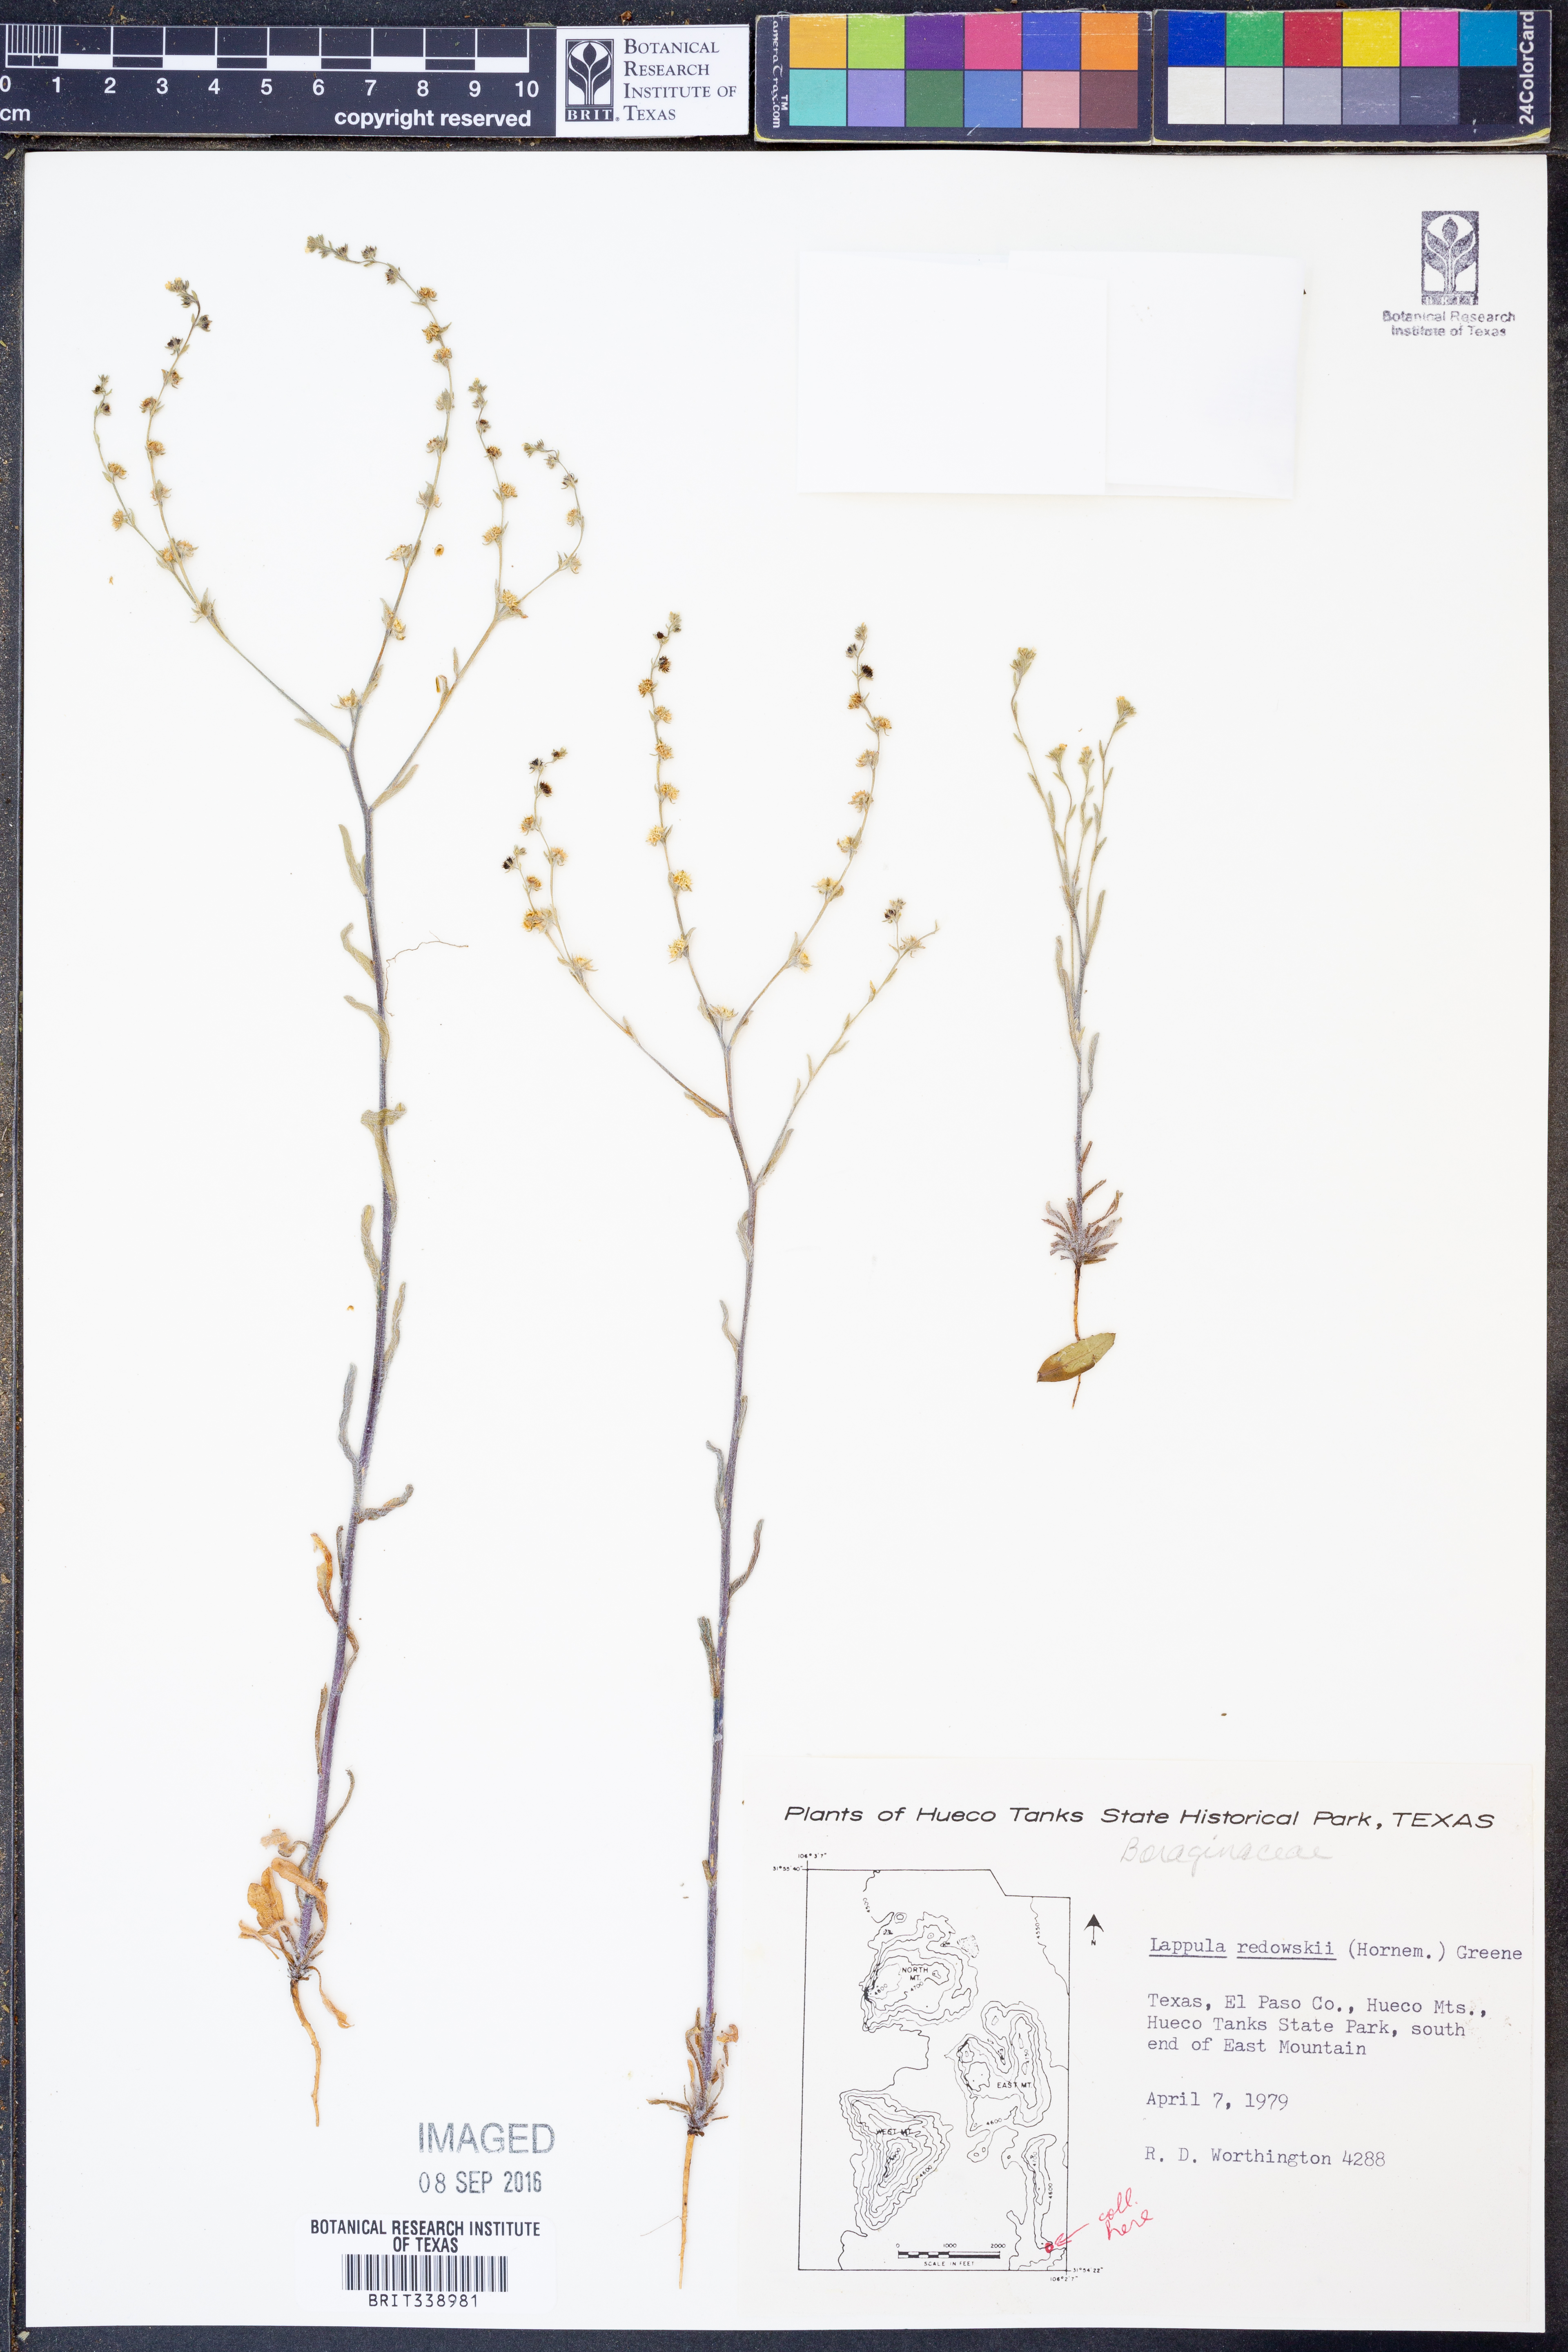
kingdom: Plantae
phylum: Tracheophyta
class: Magnoliopsida
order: Boraginales
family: Boraginaceae
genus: Lappula
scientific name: Lappula redowskii
